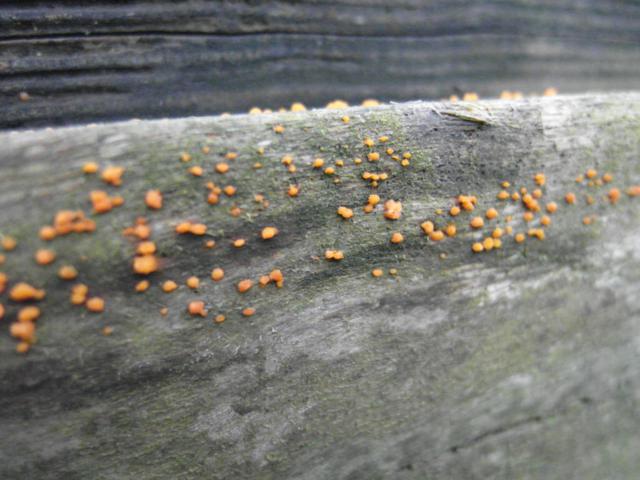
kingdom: Fungi
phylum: Basidiomycota
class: Dacrymycetes
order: Dacrymycetales
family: Dacrymycetaceae
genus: Dacrymyces
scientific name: Dacrymyces stillatus
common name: almindelig tåresvamp
